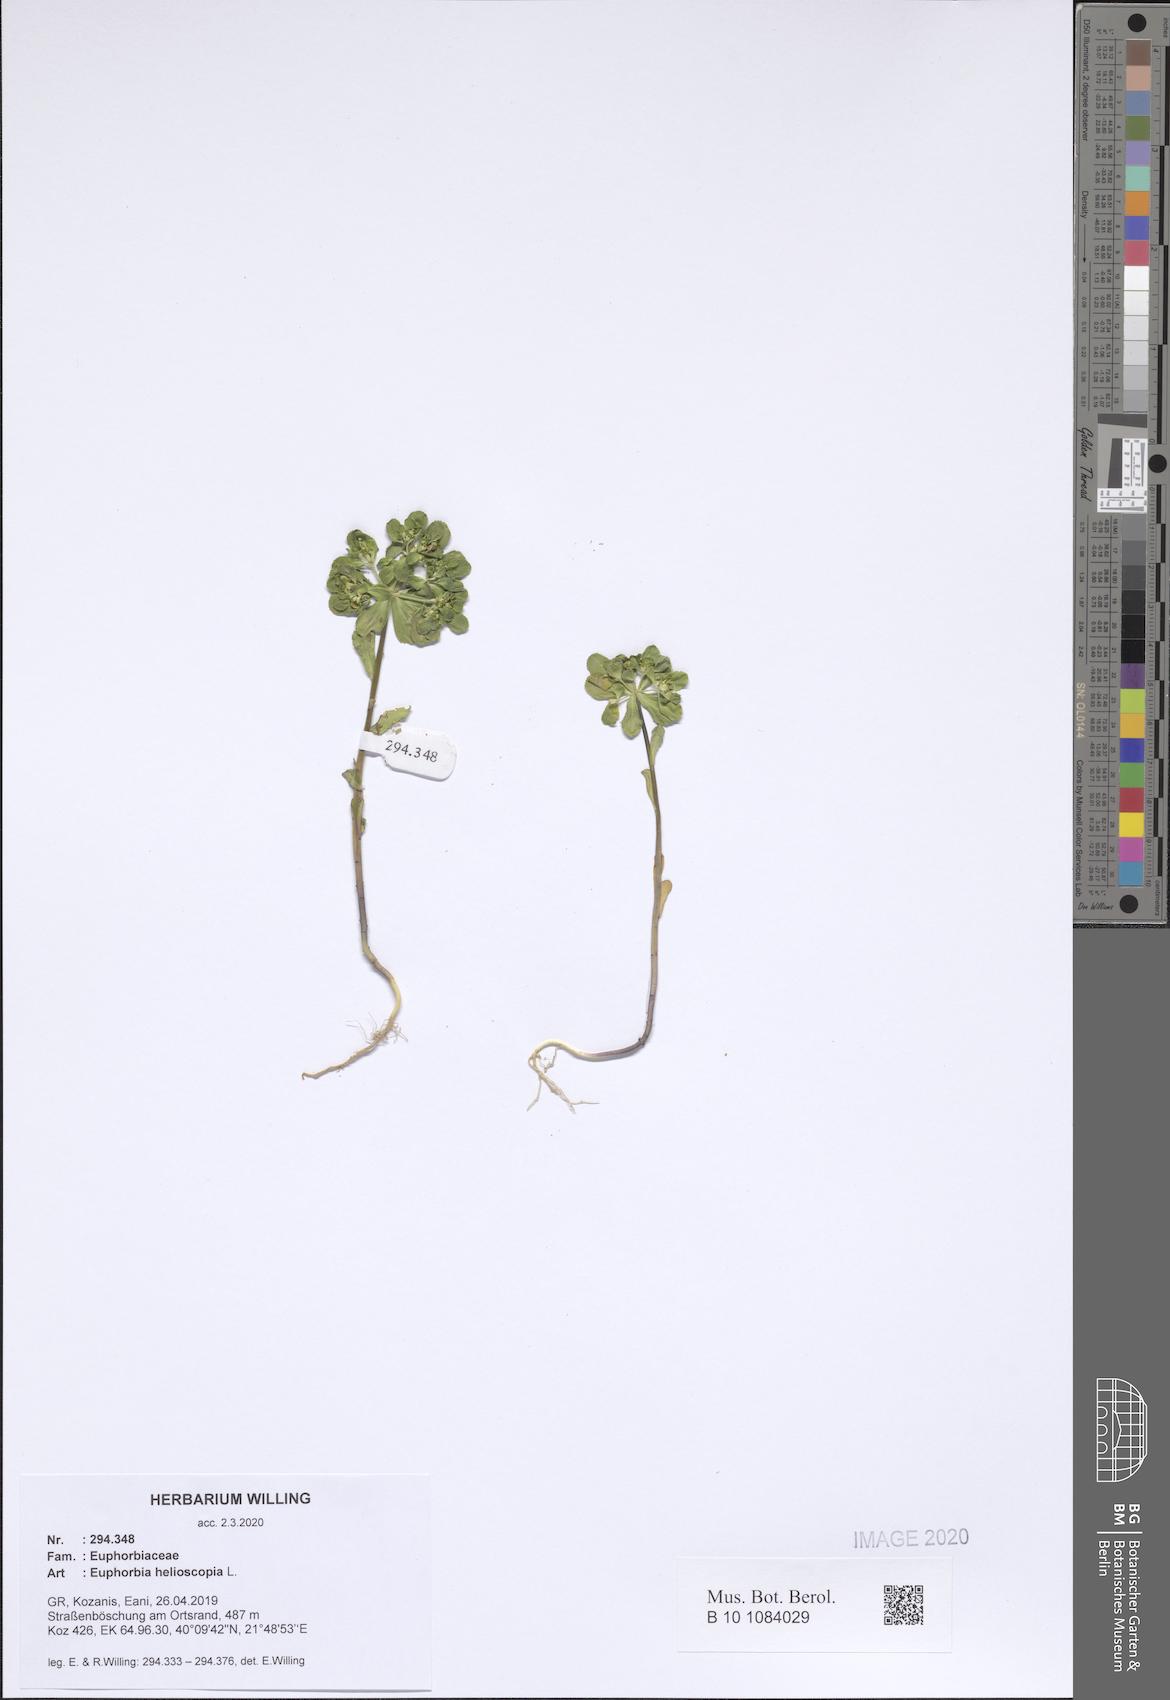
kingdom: Plantae
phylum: Tracheophyta
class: Magnoliopsida
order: Malpighiales
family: Euphorbiaceae
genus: Euphorbia
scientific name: Euphorbia helioscopia
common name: Sun spurge
